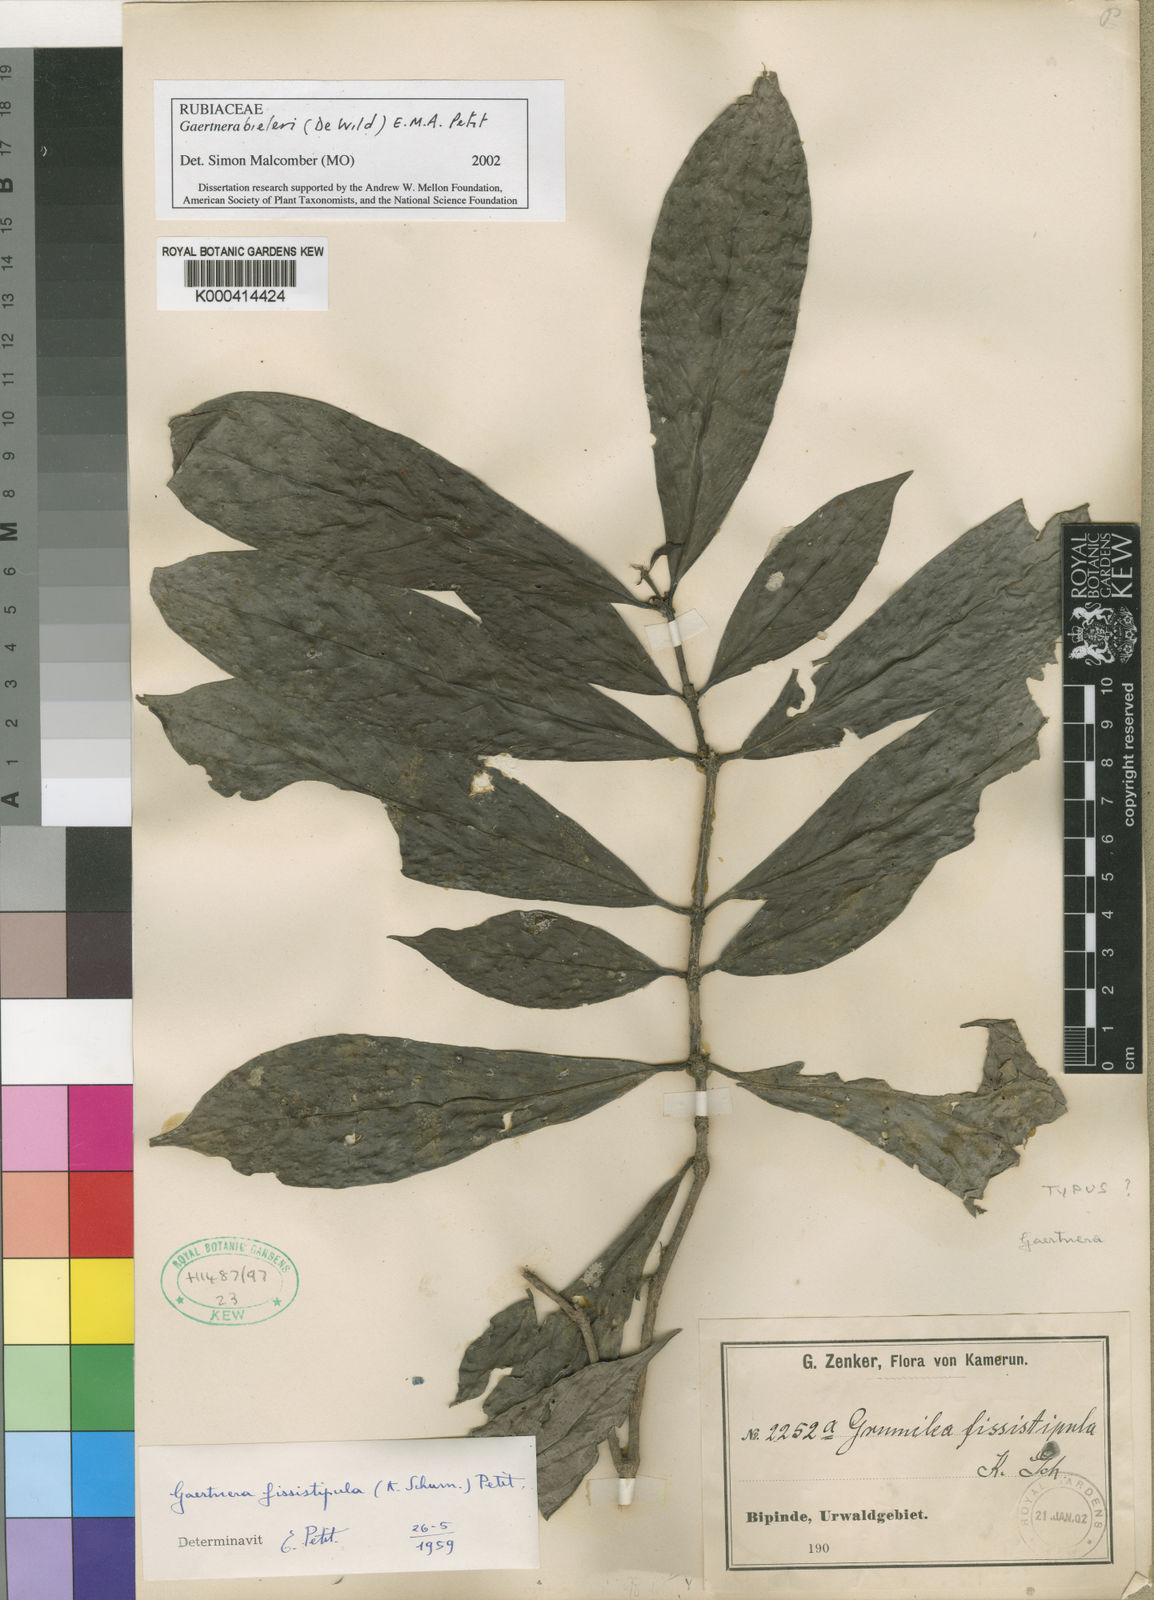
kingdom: Plantae
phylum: Tracheophyta
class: Magnoliopsida
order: Gentianales
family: Rubiaceae
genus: Gaertnera
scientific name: Gaertnera bieleri
